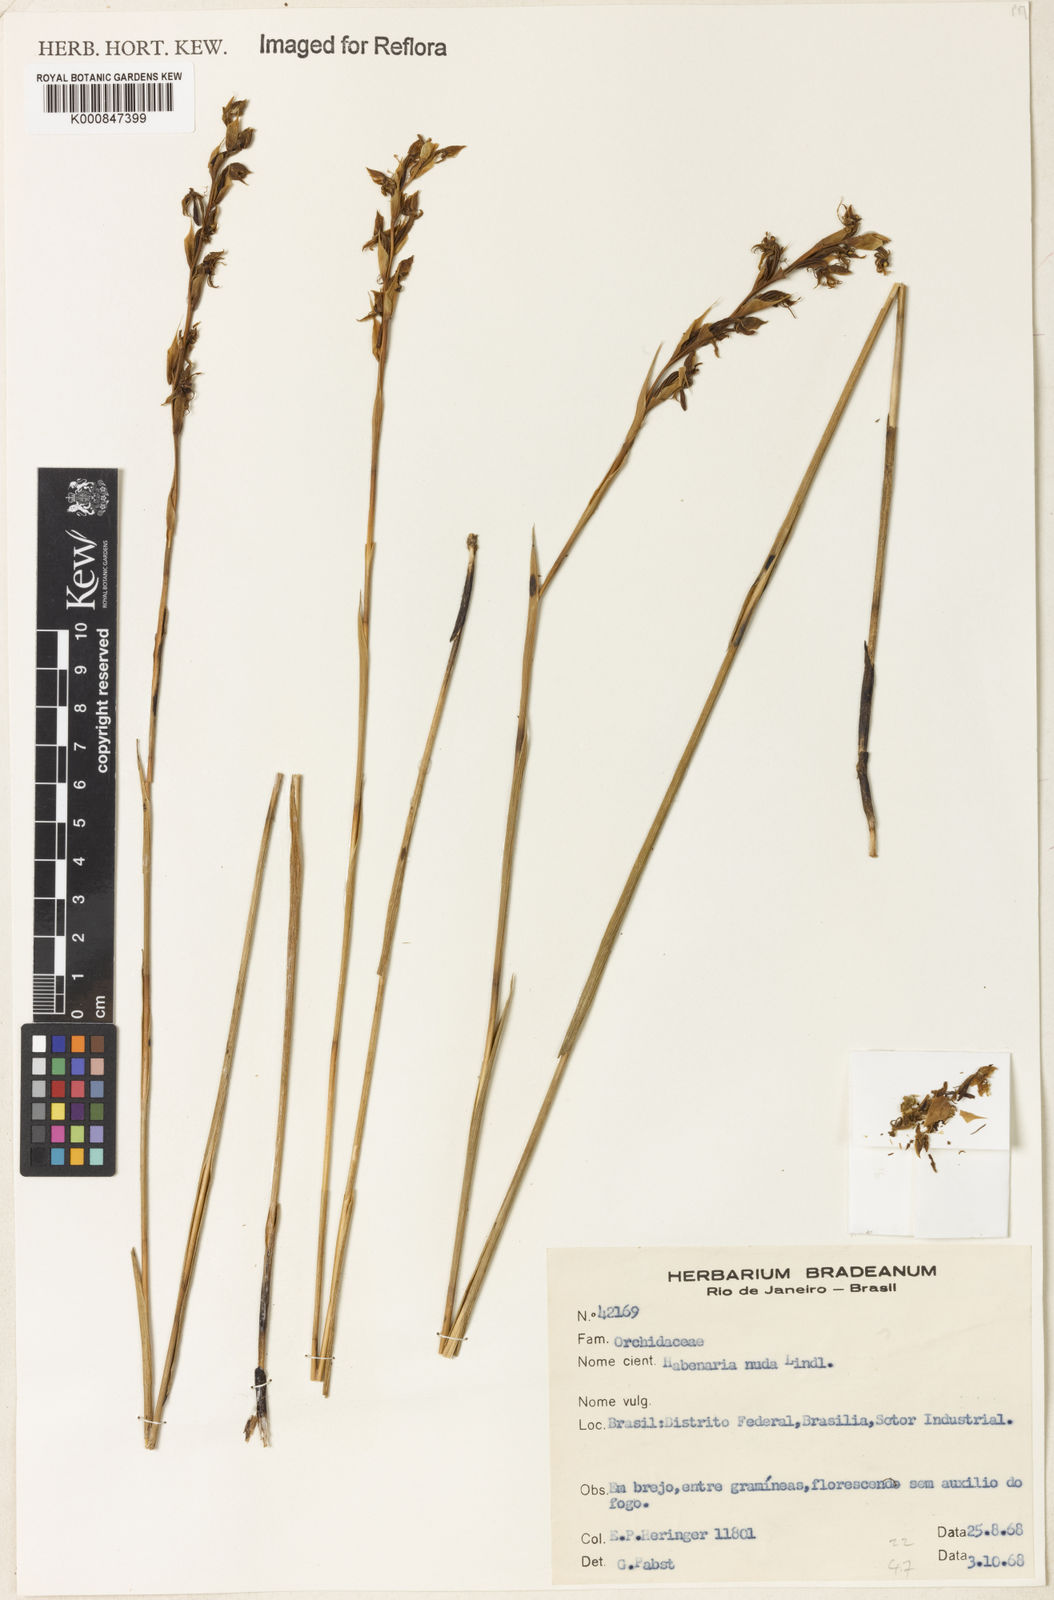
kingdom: Plantae
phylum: Tracheophyta
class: Liliopsida
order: Asparagales
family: Orchidaceae
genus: Habenaria
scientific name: Habenaria nuda
